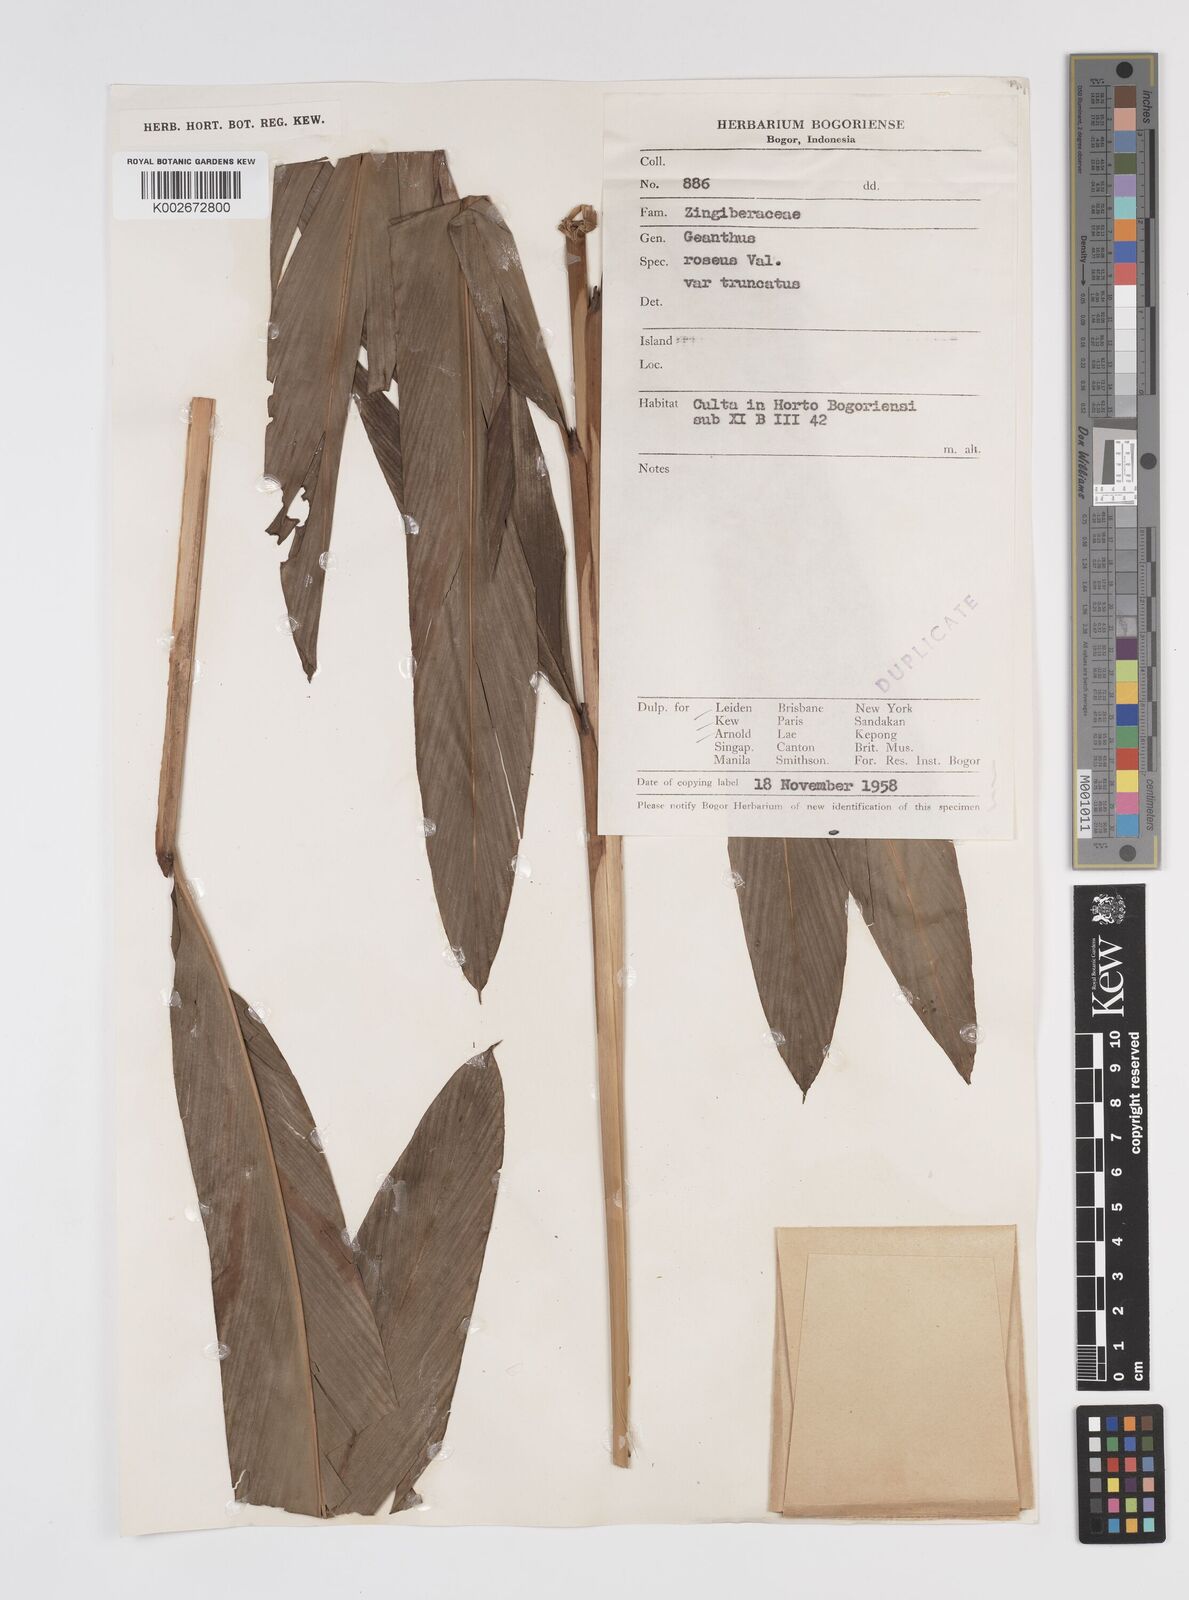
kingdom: Plantae
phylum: Tracheophyta
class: Liliopsida
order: Zingiberales
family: Zingiberaceae
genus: Etlingera
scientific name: Etlingera alba
